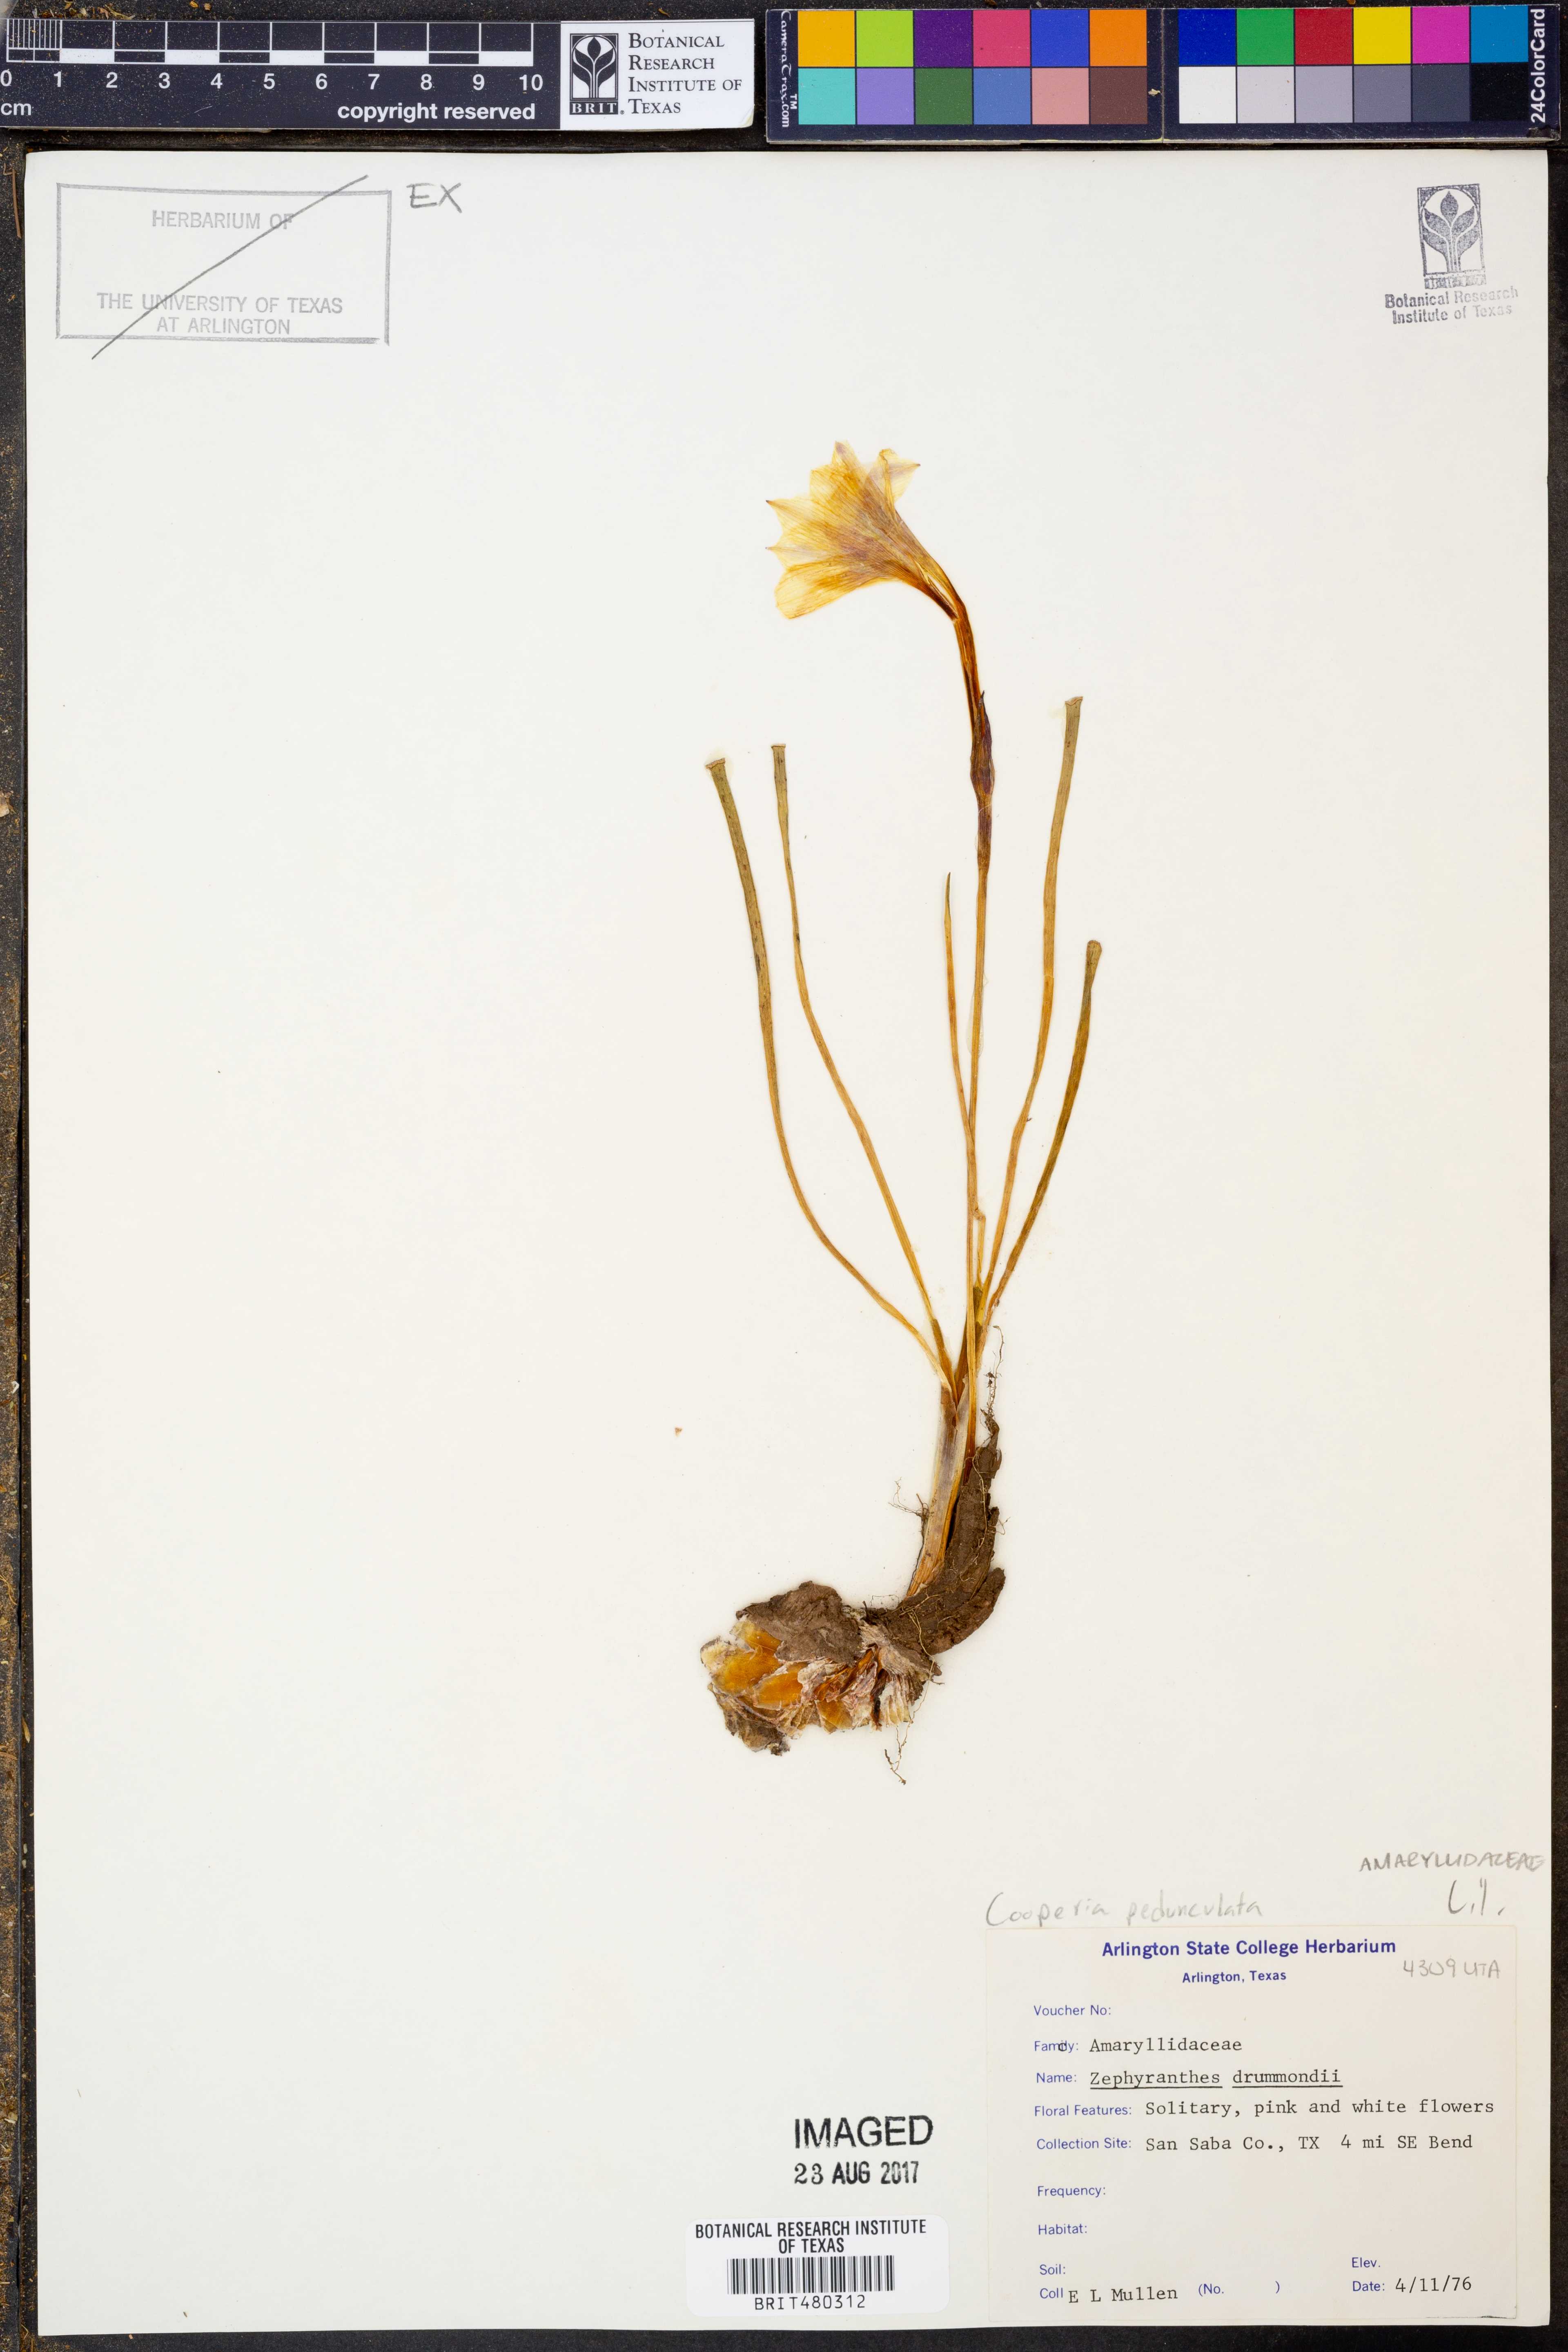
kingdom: Plantae
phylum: Tracheophyta
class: Liliopsida
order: Asparagales
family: Amaryllidaceae
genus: Zephyranthes
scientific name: Zephyranthes drummondii
